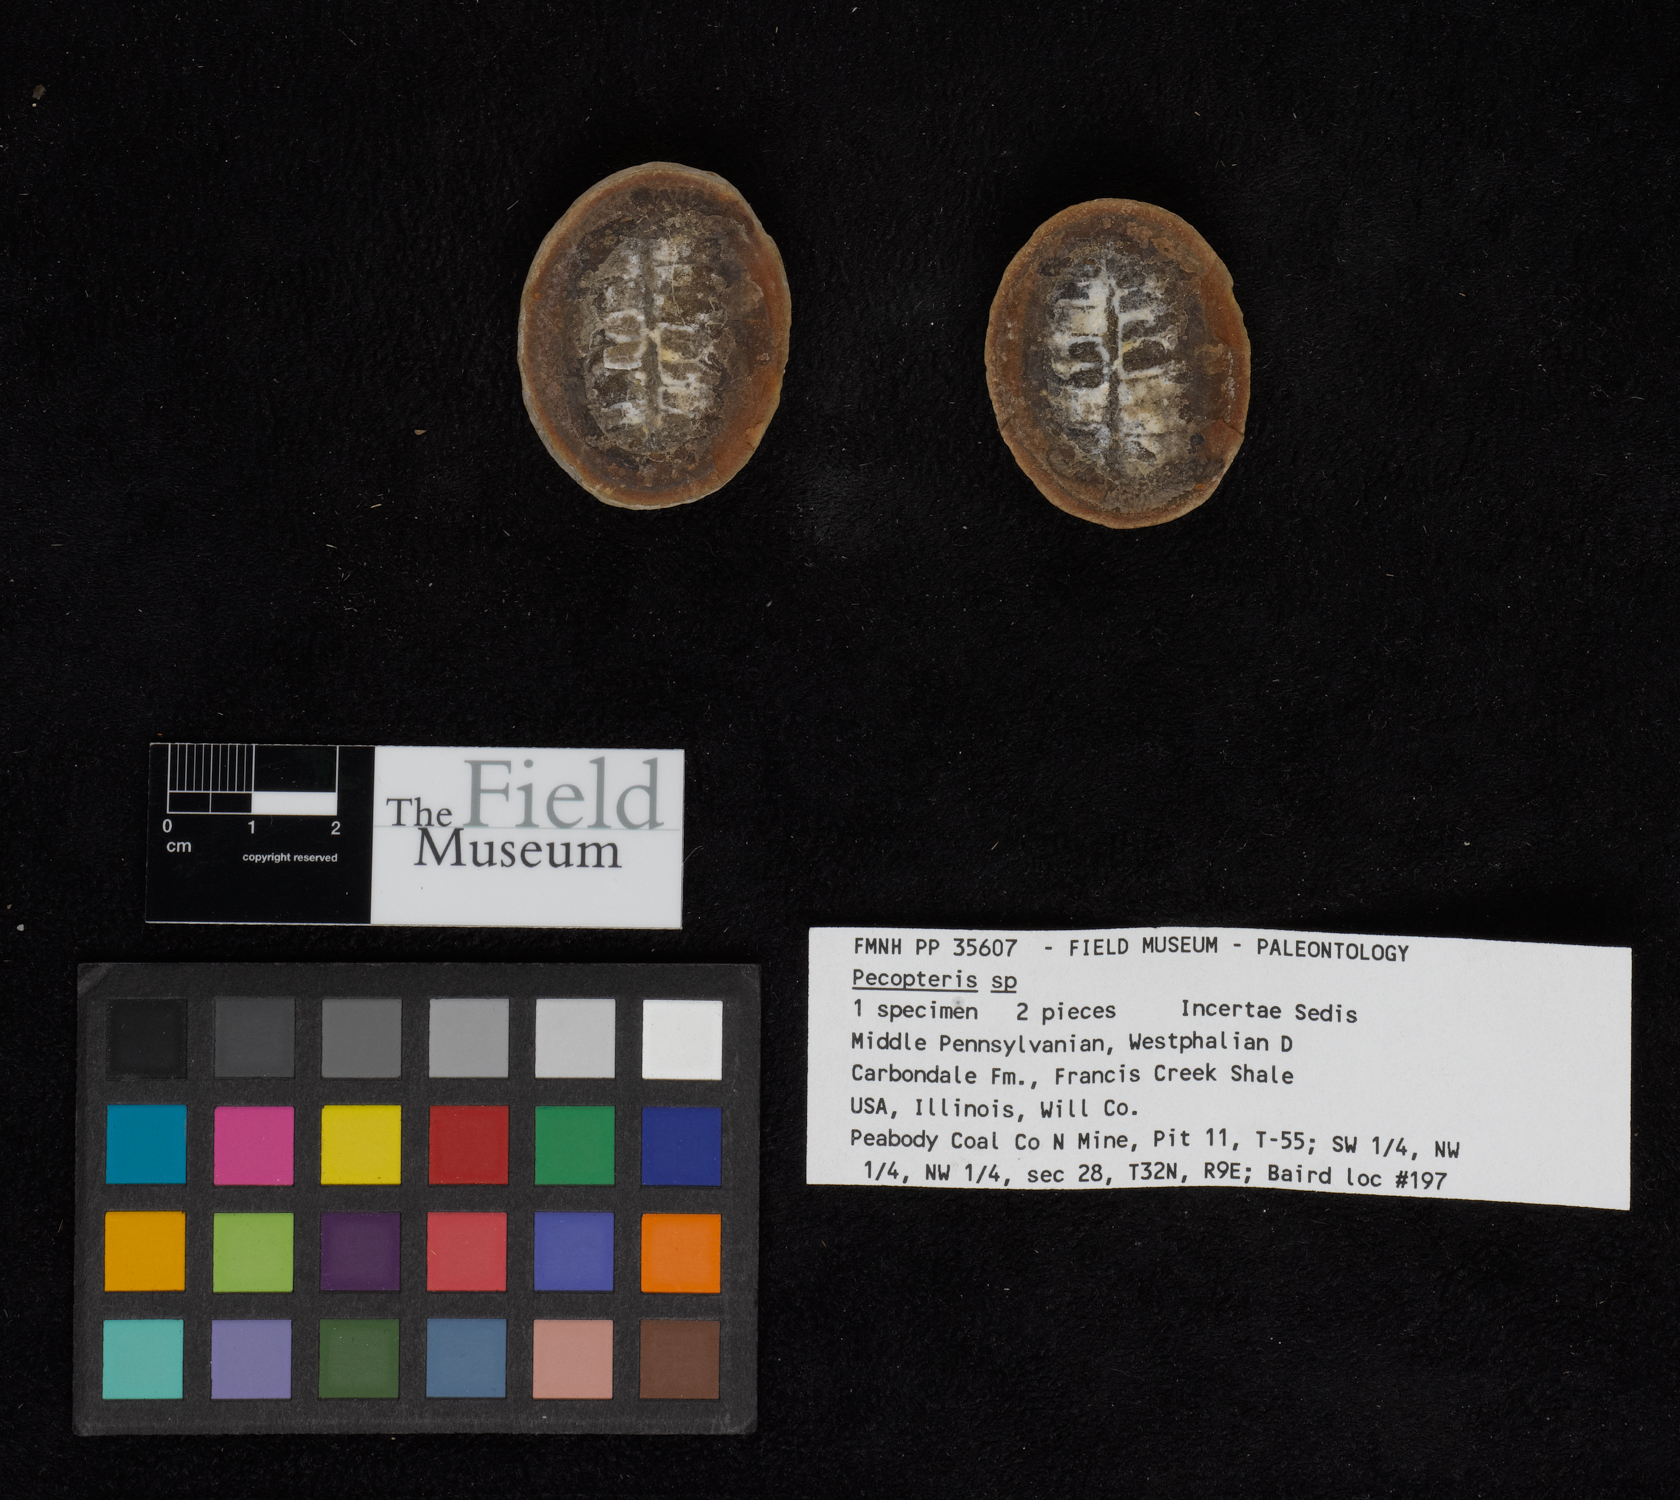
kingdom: Plantae
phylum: Tracheophyta
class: Polypodiopsida
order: Marattiales
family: Asterothecaceae
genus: Pecopteris
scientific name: Pecopteris
